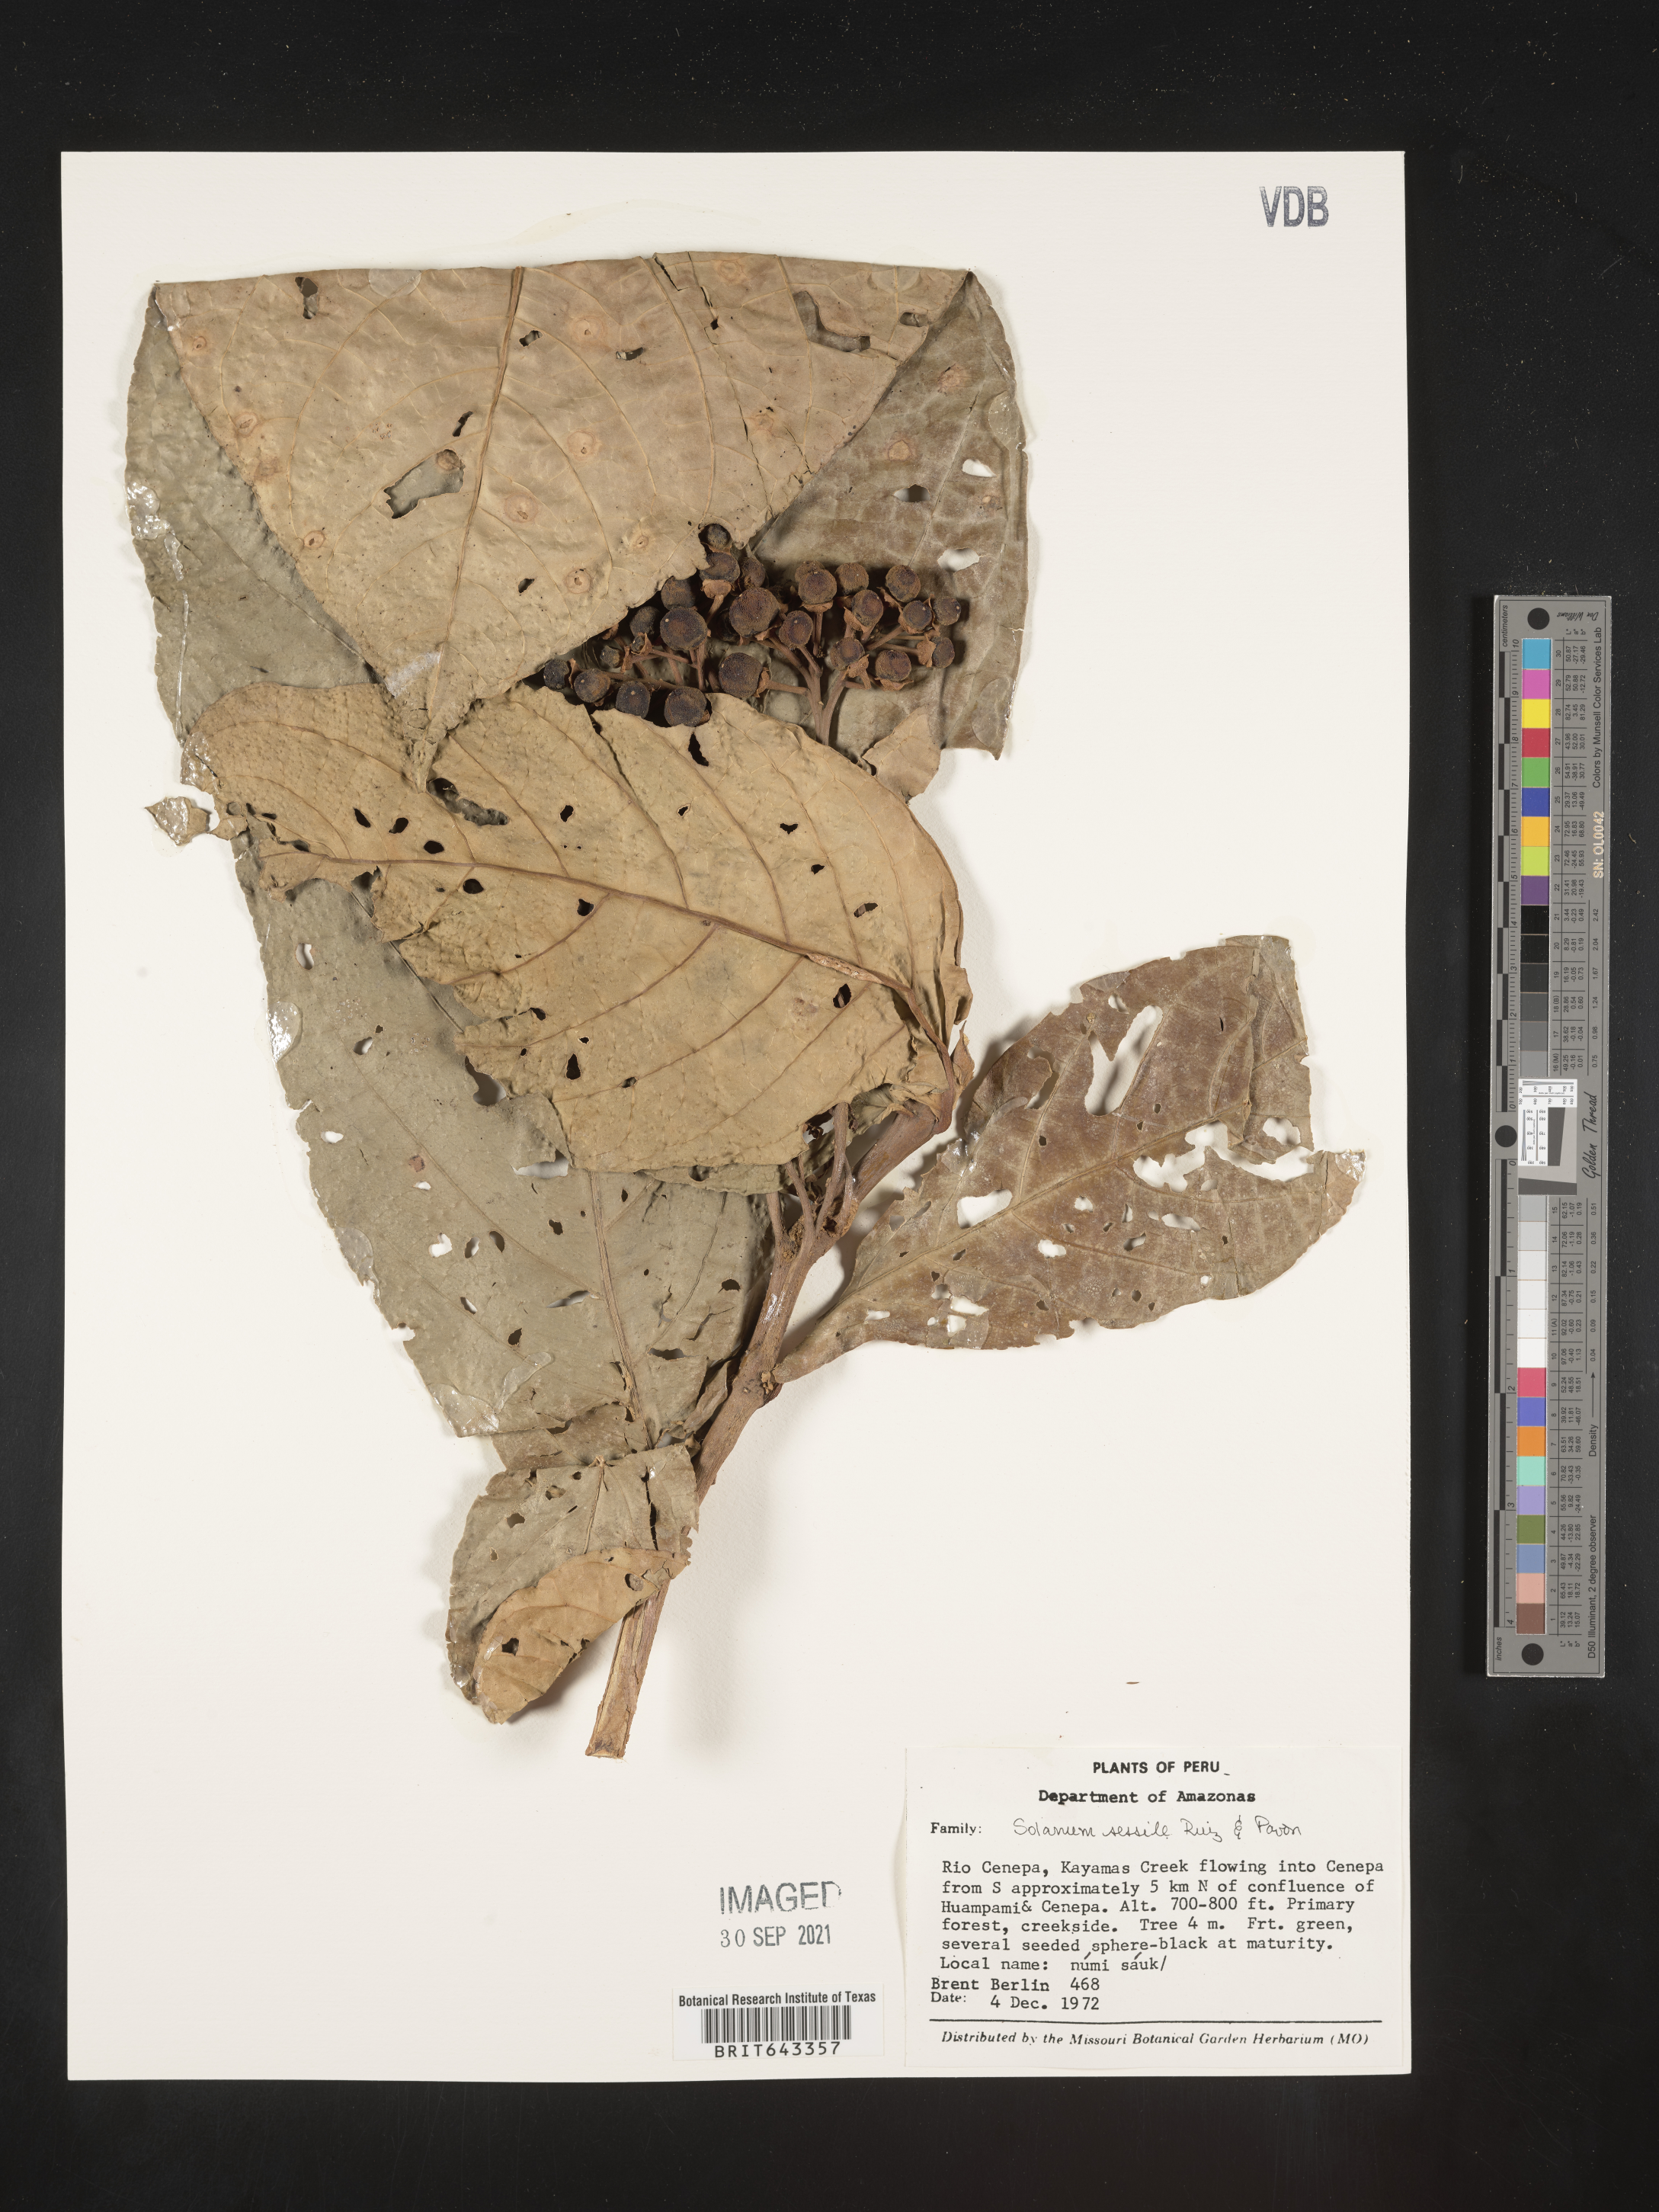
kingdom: Plantae
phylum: Tracheophyta
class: Magnoliopsida
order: Solanales
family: Solanaceae
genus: Solanum
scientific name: Solanum
